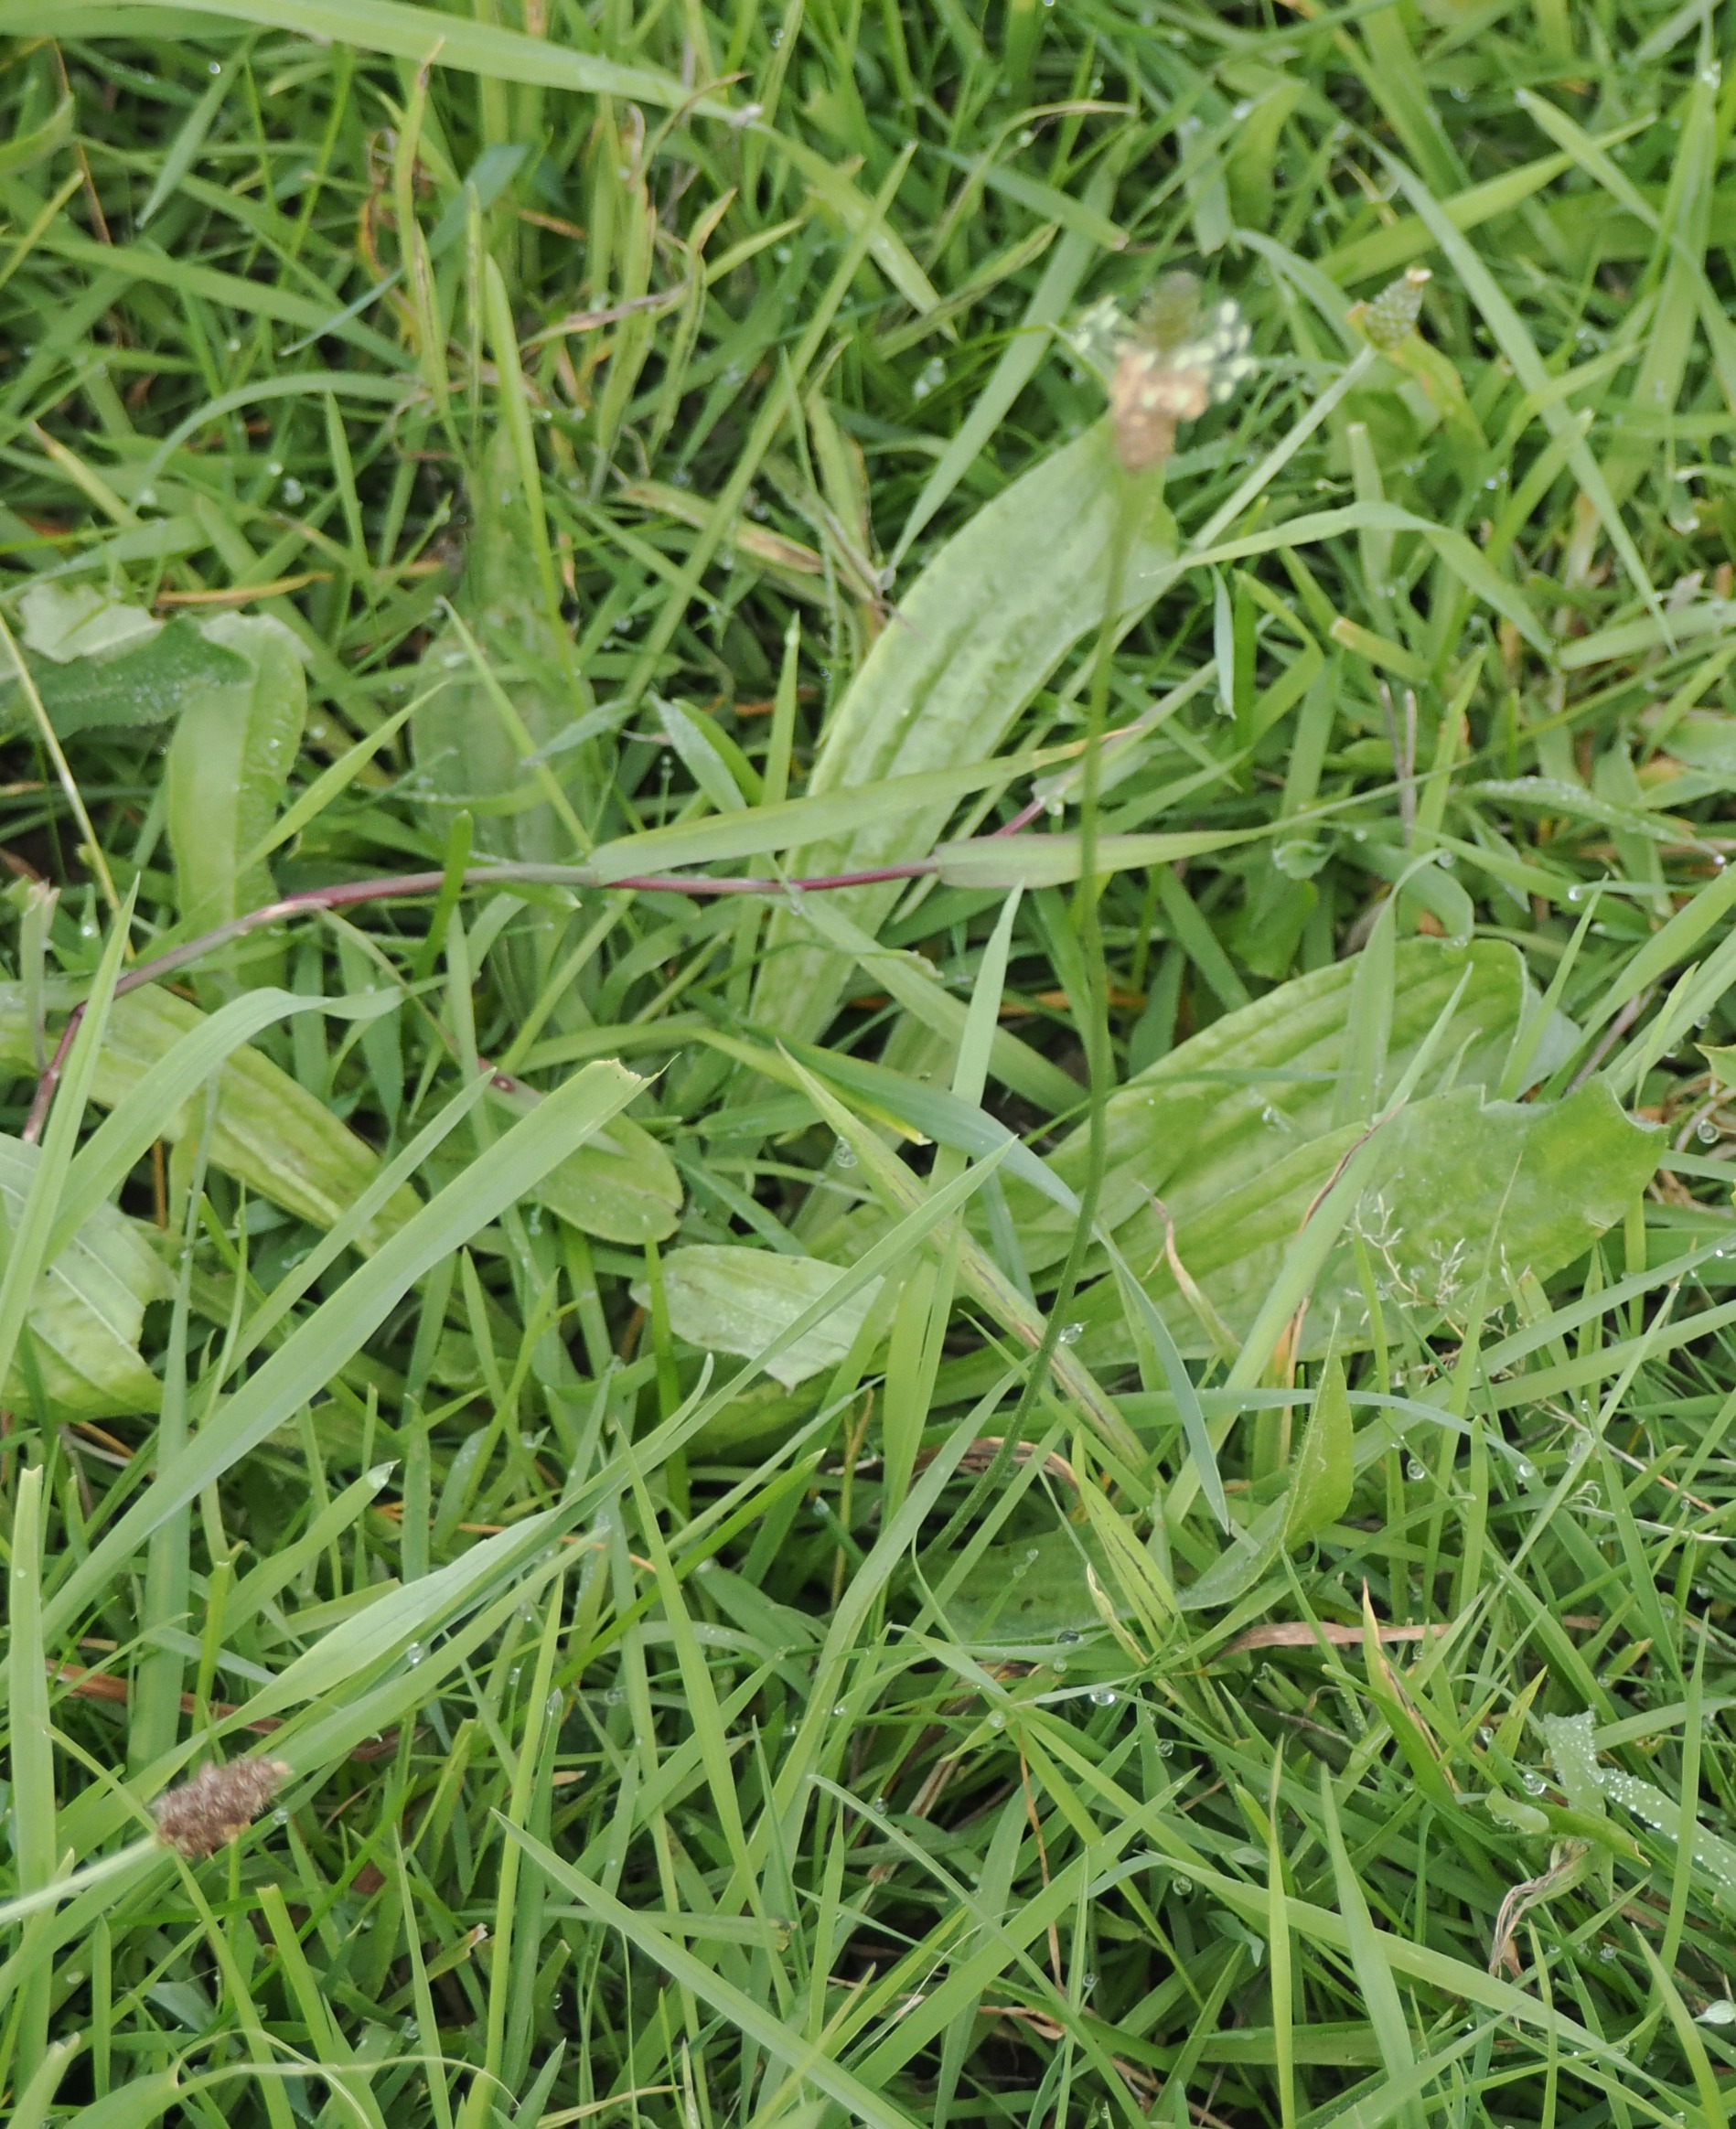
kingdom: Plantae
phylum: Tracheophyta
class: Magnoliopsida
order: Lamiales
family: Plantaginaceae
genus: Plantago
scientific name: Plantago lanceolata
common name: Lancet-vejbred
